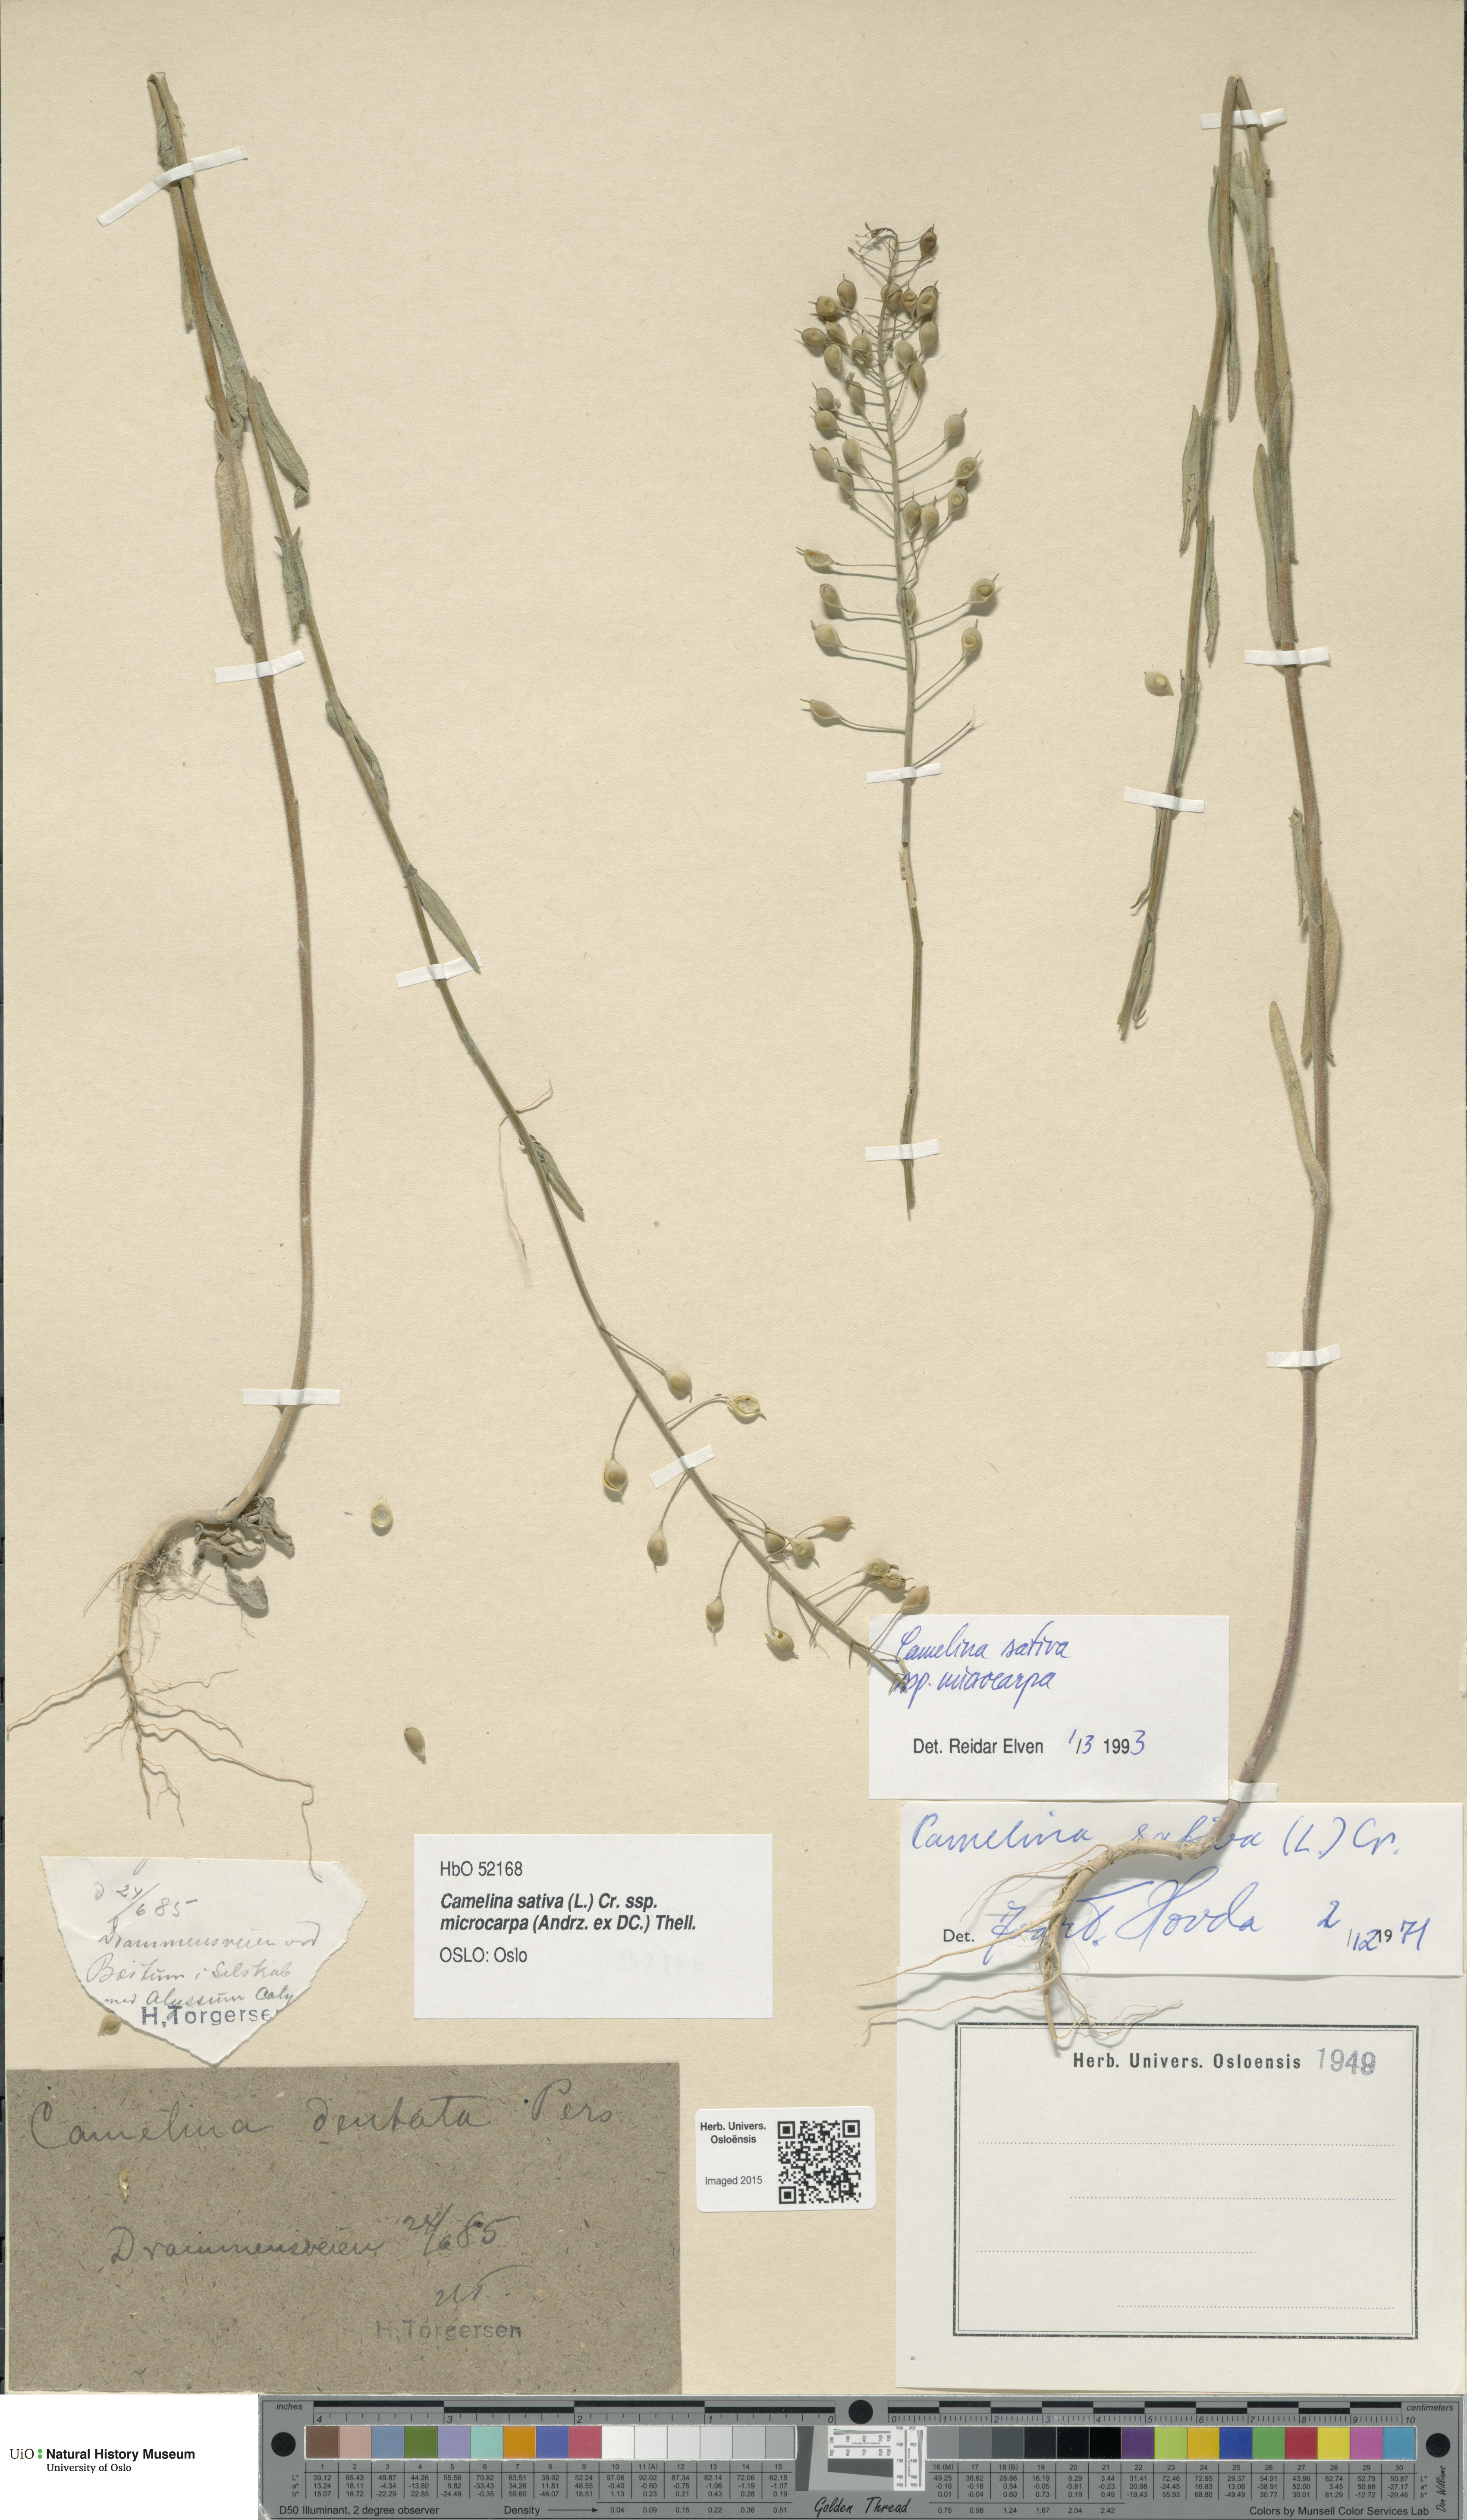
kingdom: Plantae
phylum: Tracheophyta
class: Magnoliopsida
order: Brassicales
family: Brassicaceae
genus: Camelina
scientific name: Camelina sativa
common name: Gold-of-pleasure
